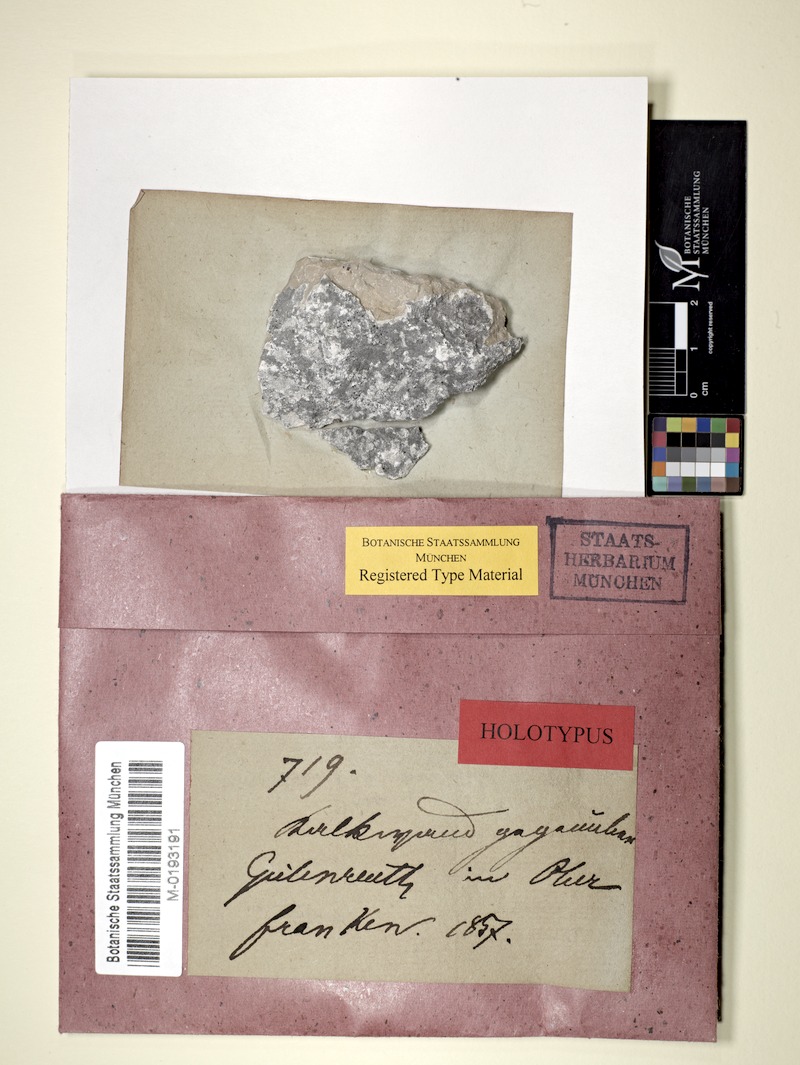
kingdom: Fungi
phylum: Ascomycota
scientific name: Ascomycota
